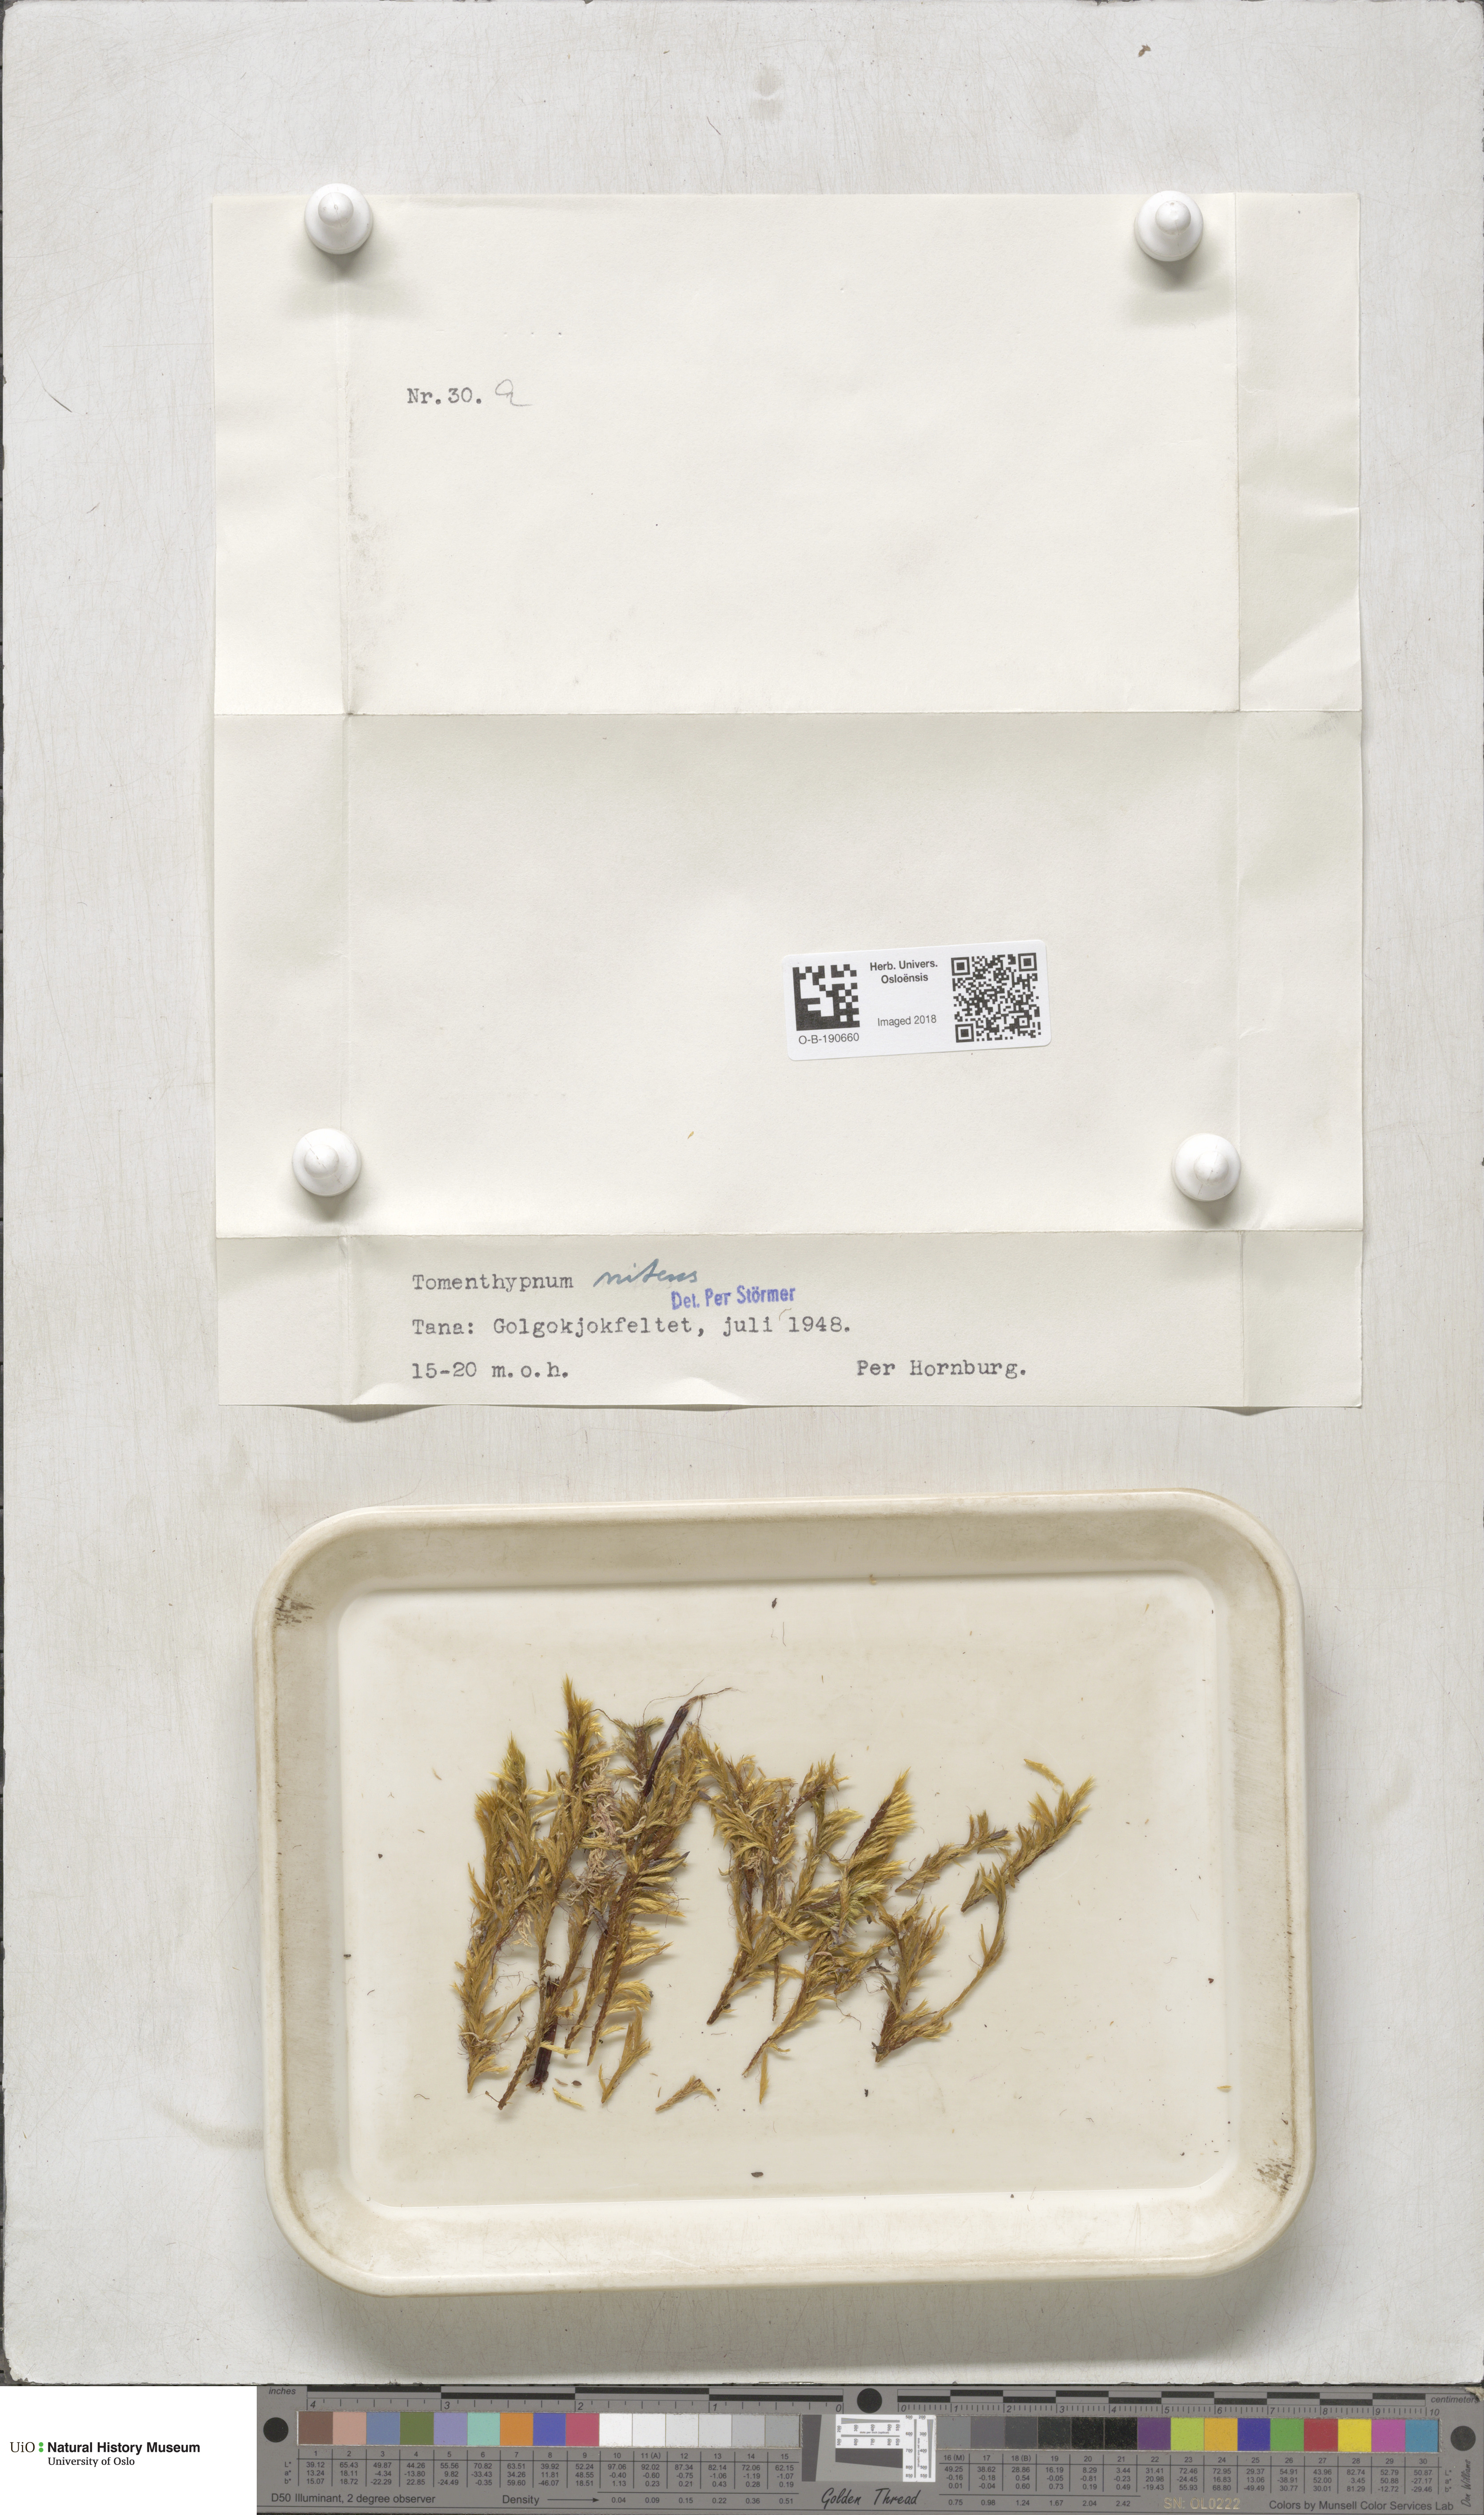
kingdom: Plantae
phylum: Bryophyta
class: Bryopsida
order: Hypnales
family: Amblystegiaceae
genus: Tomentypnum
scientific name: Tomentypnum nitens
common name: Golden fuzzy fen moss
